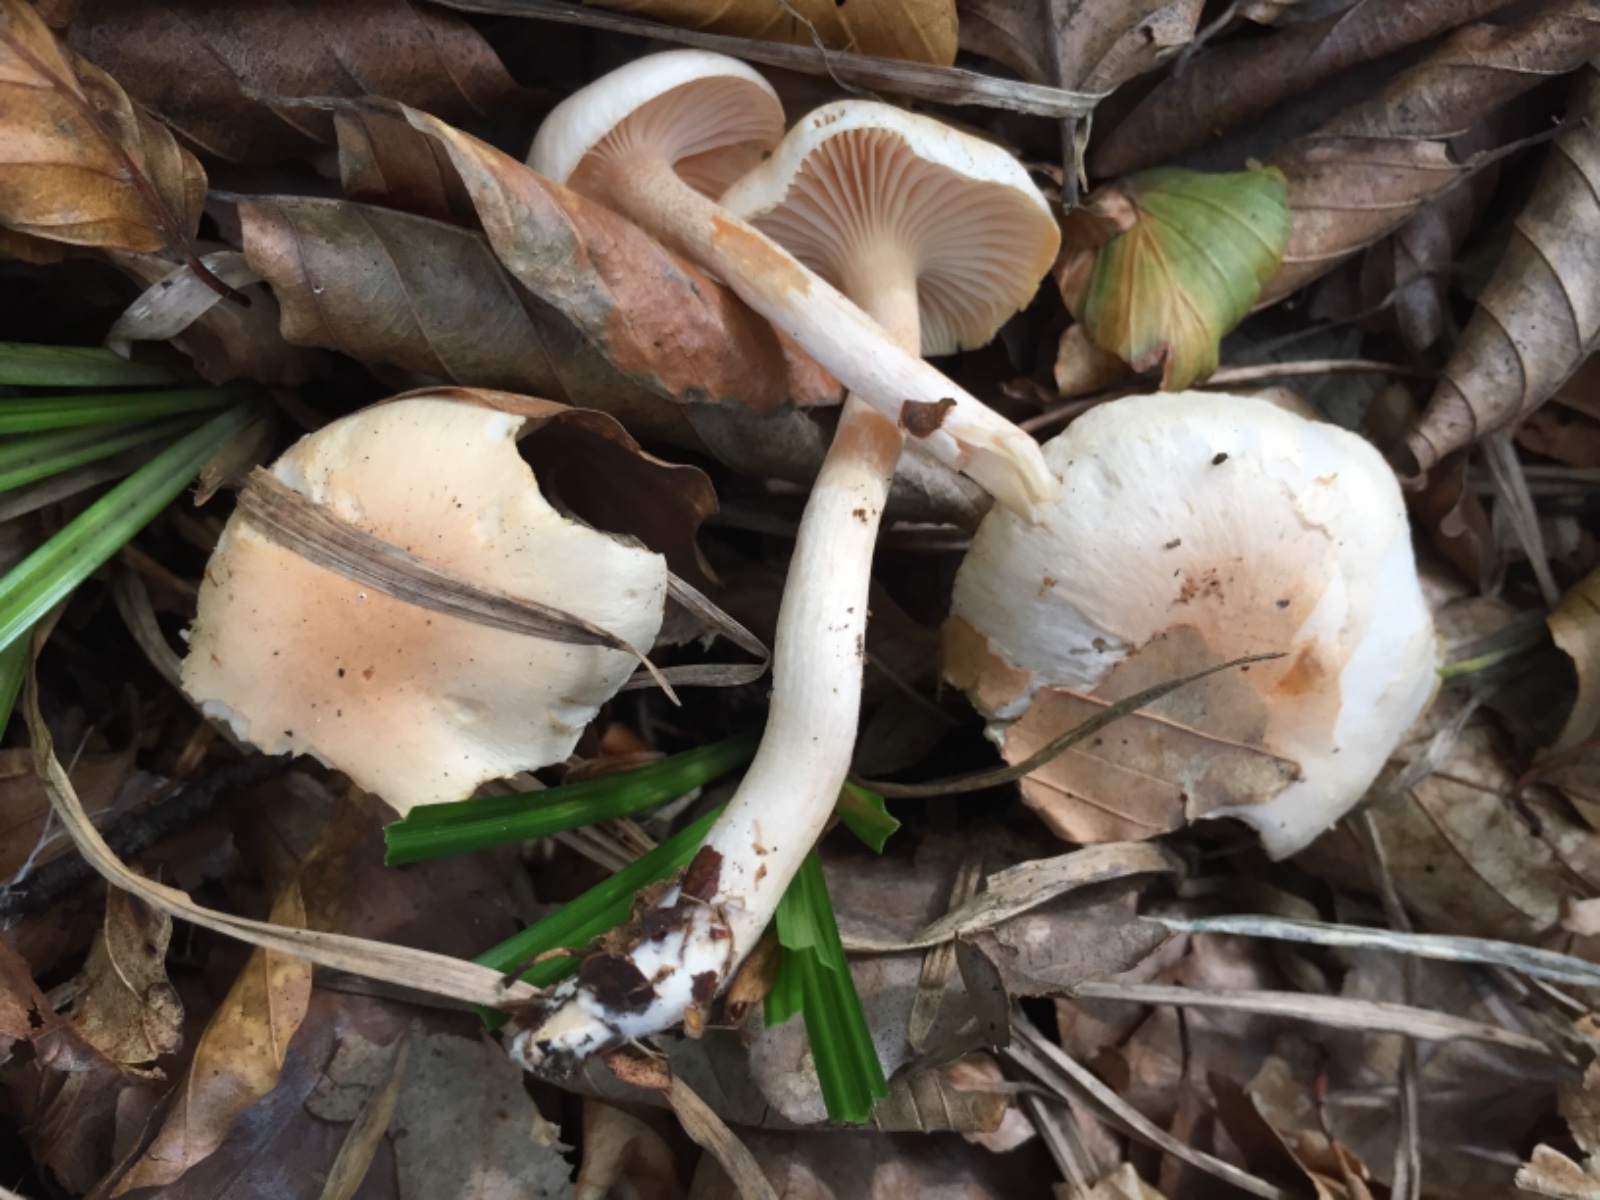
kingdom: Fungi
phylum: Basidiomycota
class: Agaricomycetes
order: Agaricales
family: Hygrophoraceae
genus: Hygrophorus
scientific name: Hygrophorus unicolor
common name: orangeøjet sneglehat
